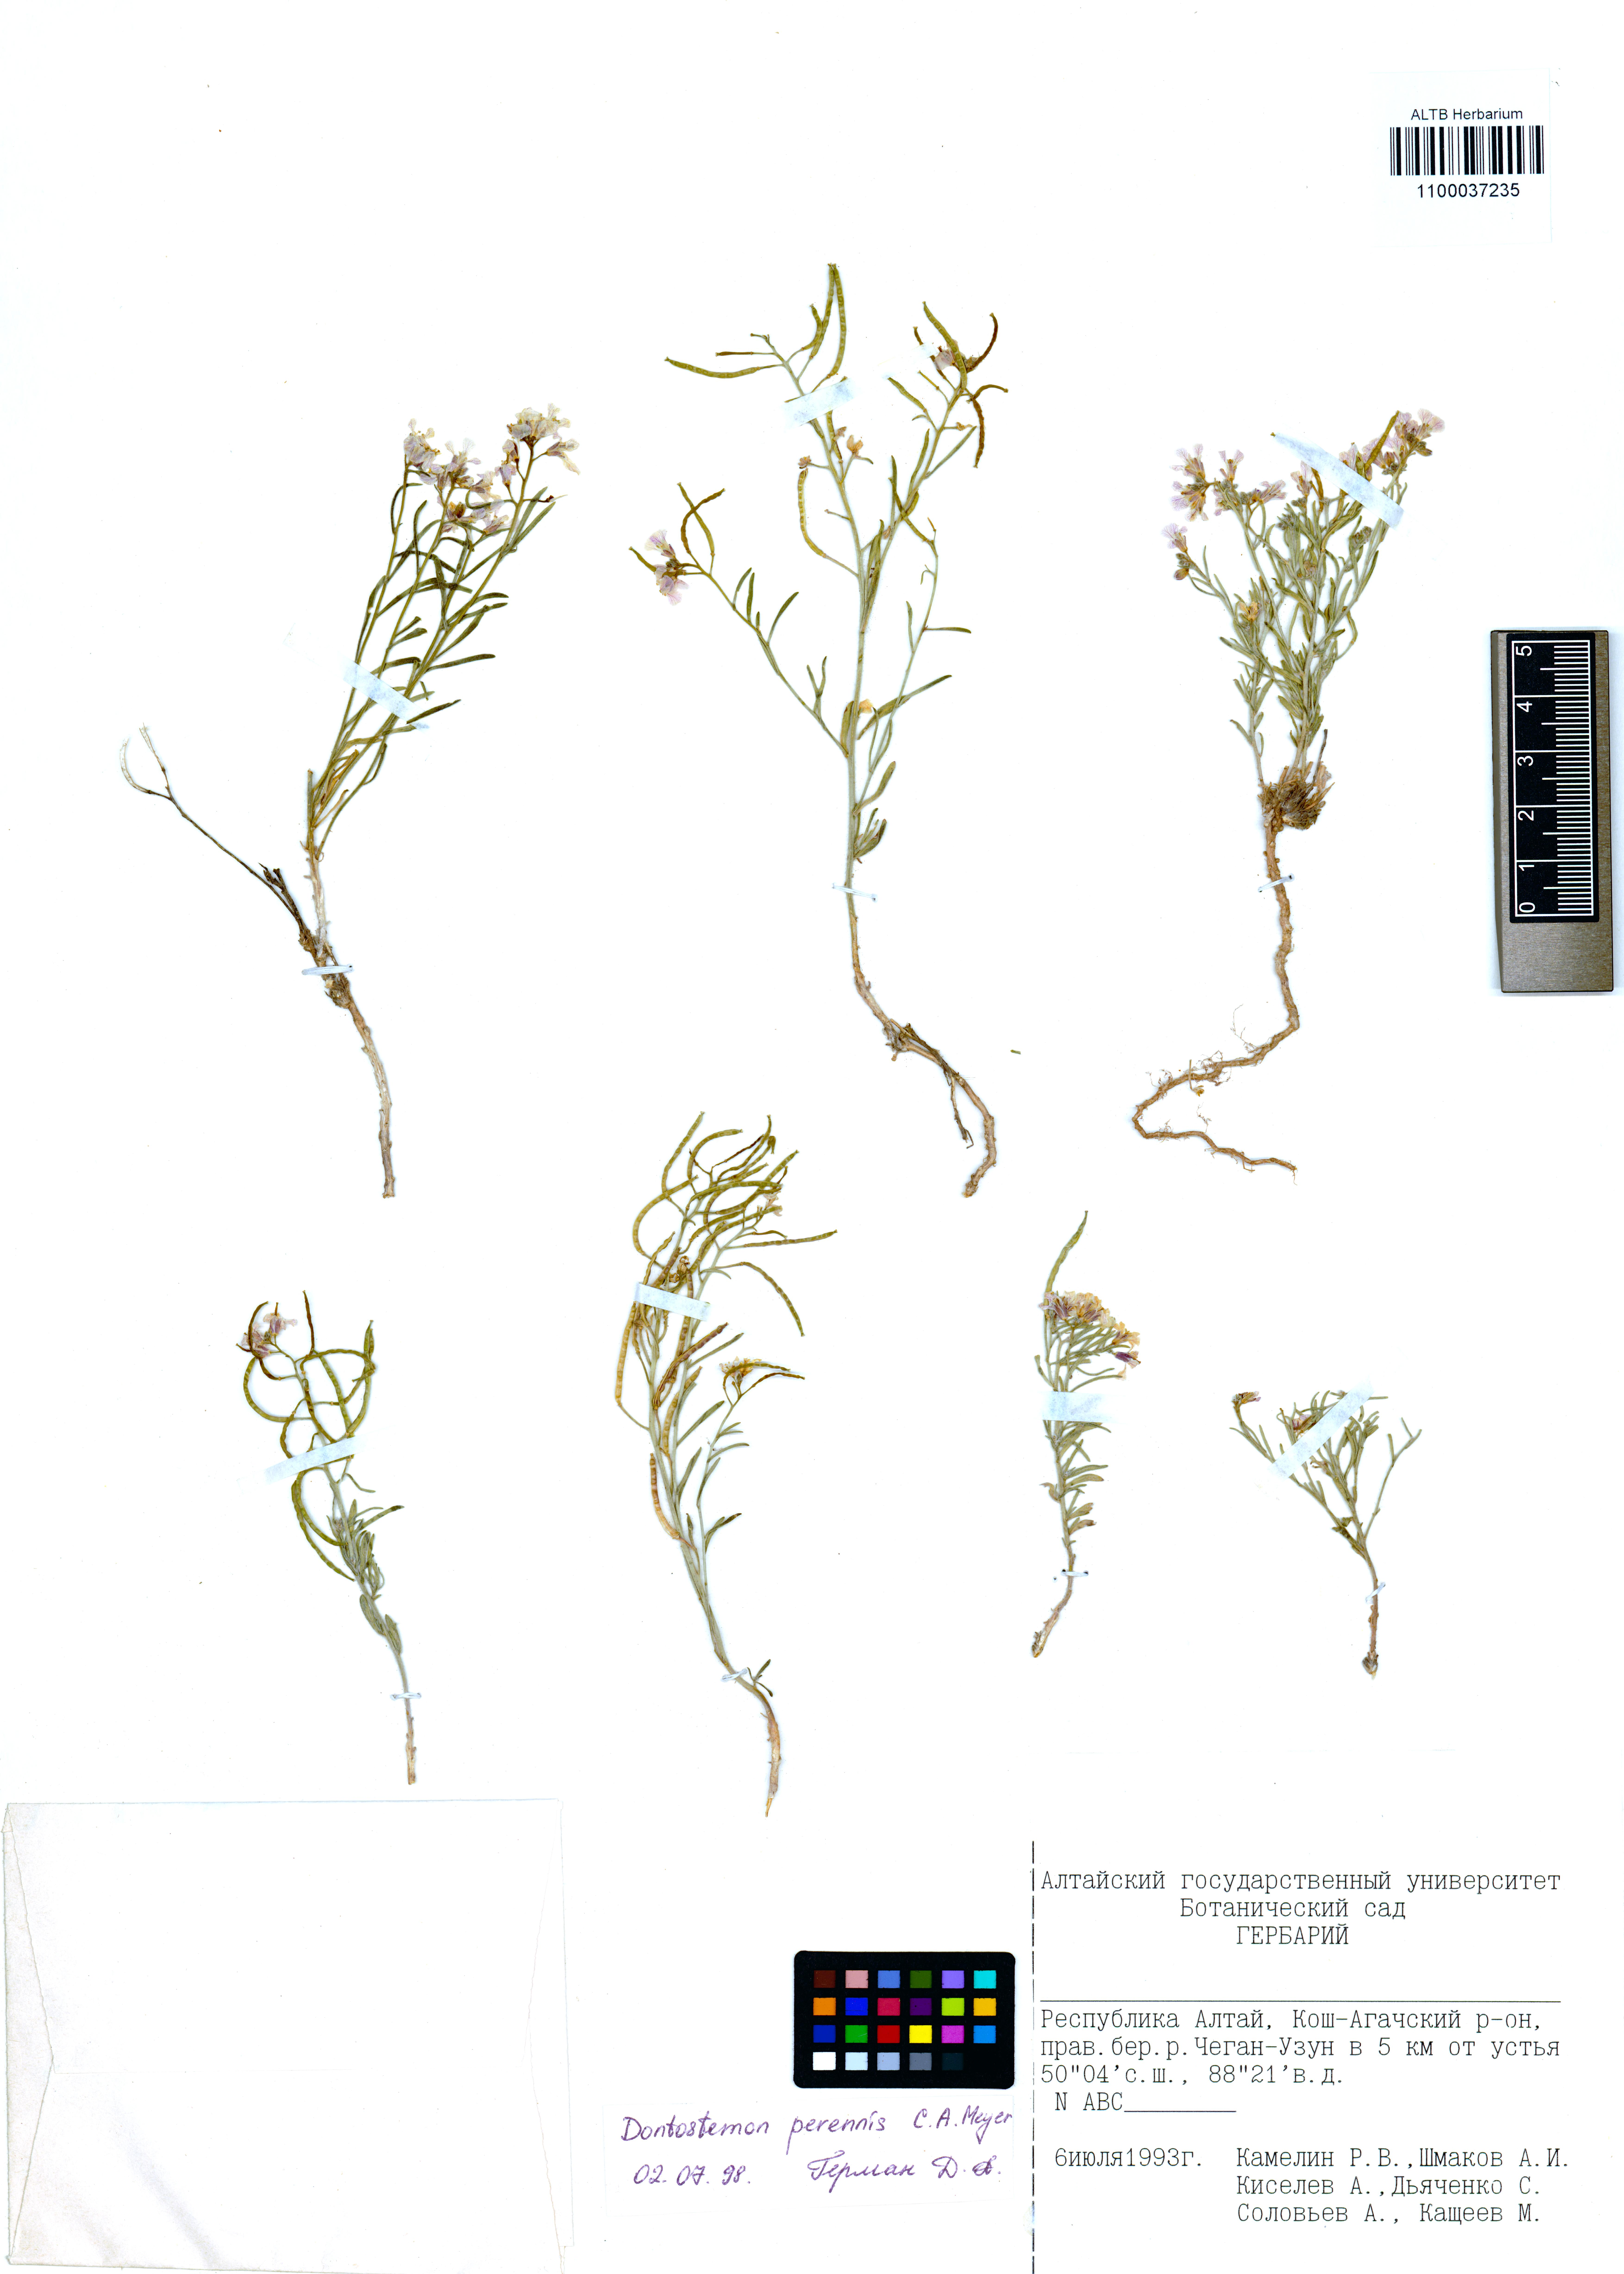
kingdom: Plantae
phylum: Tracheophyta
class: Liliopsida
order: Asparagales
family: Iridaceae
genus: Iris
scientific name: Iris ruthenica
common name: Purple-bract iris
